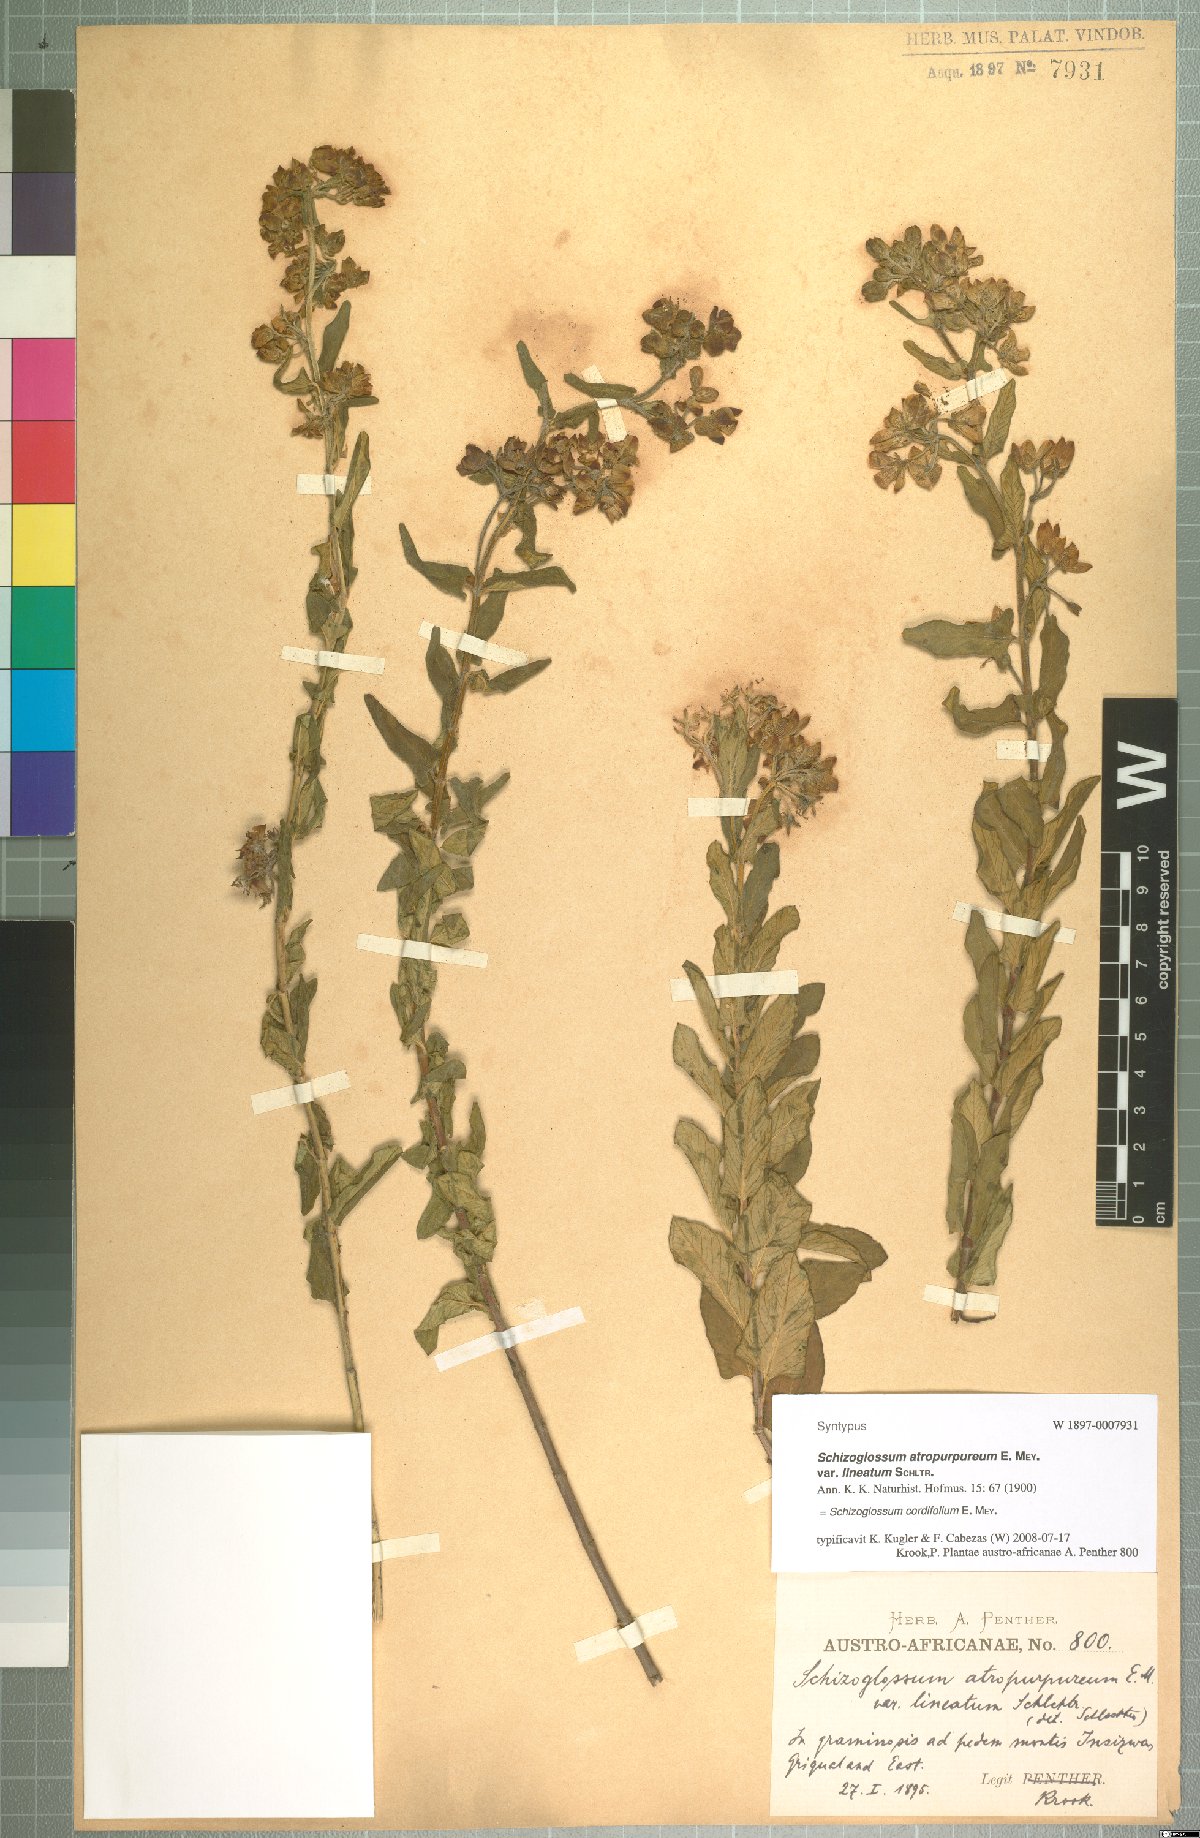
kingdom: Plantae
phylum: Tracheophyta
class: Magnoliopsida
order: Gentianales
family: Apocynaceae
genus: Schizoglossum
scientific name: Schizoglossum cordifolium
